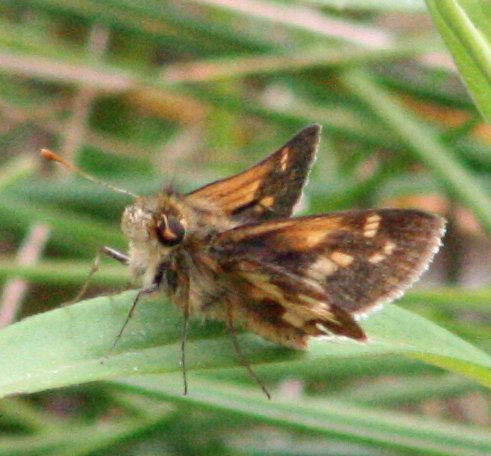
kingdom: Animalia
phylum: Arthropoda
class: Insecta
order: Lepidoptera
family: Hesperiidae
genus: Polites
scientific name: Polites coras
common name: Peck's Skipper
